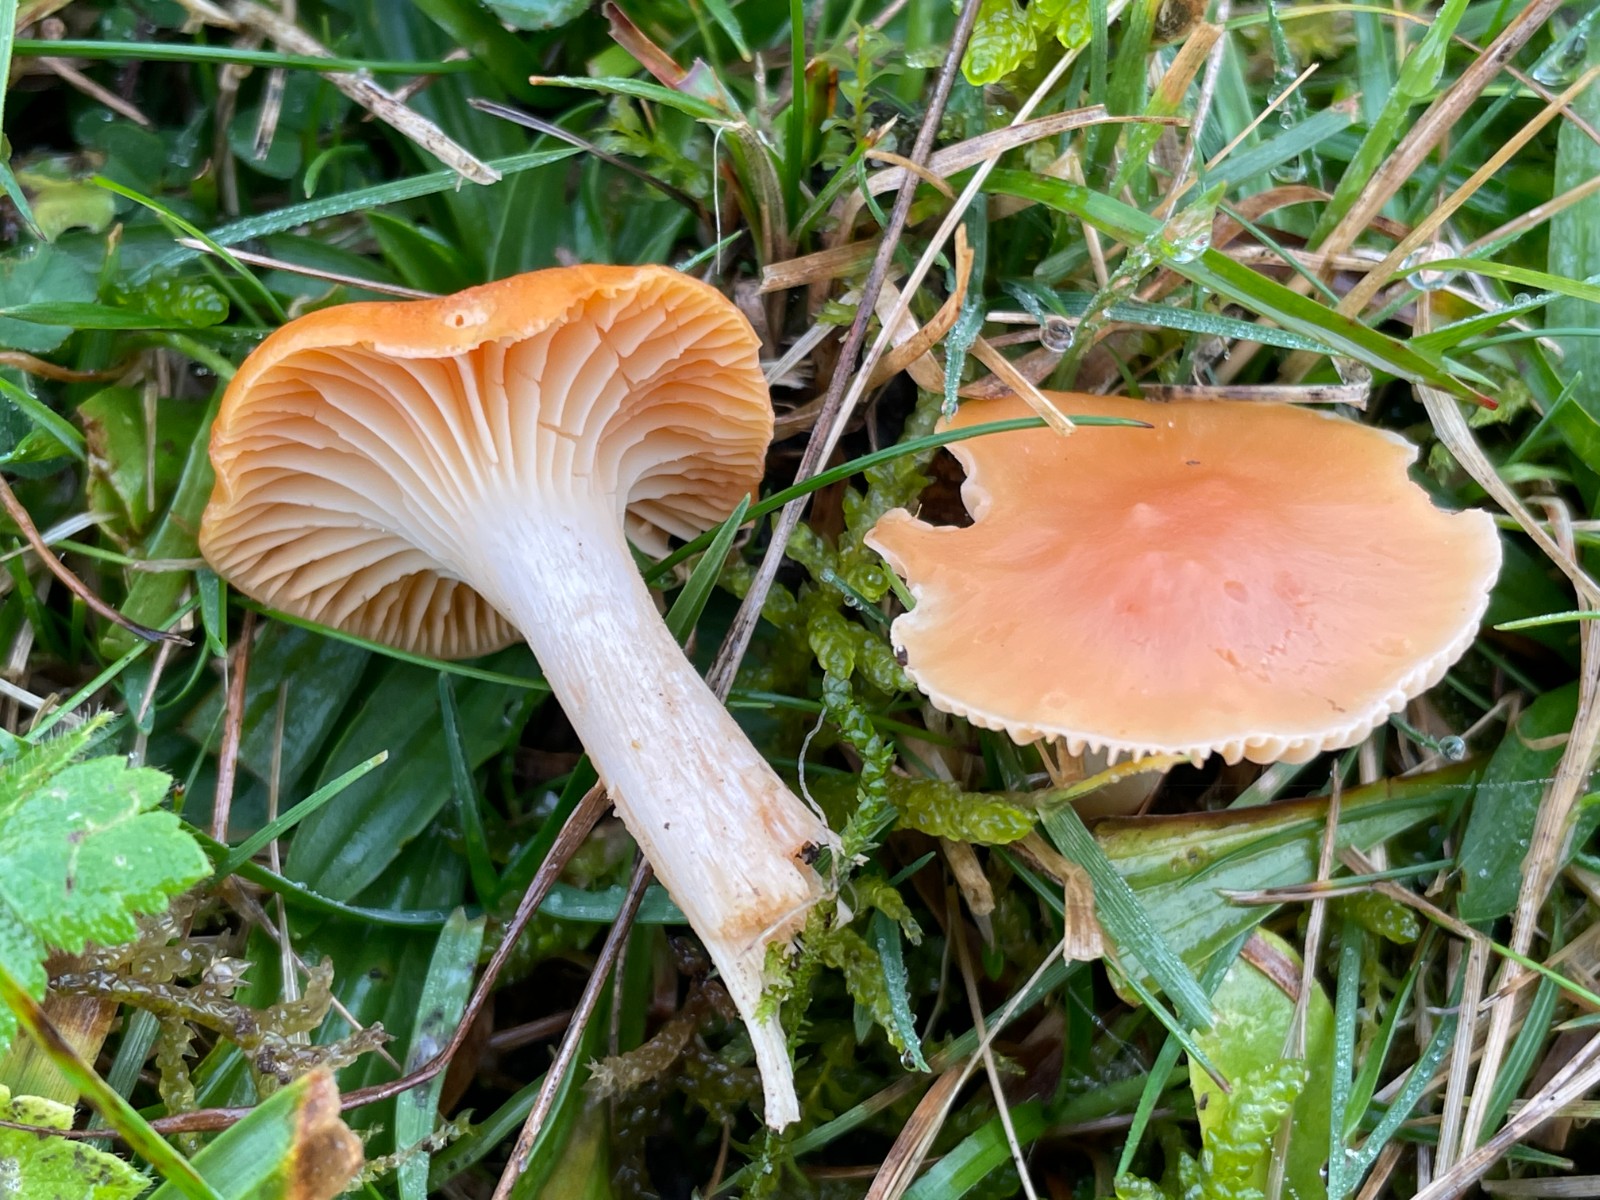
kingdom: Fungi
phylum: Basidiomycota
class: Agaricomycetes
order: Agaricales
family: Hygrophoraceae
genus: Cuphophyllus
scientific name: Cuphophyllus pratensis
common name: eng-vokshat
